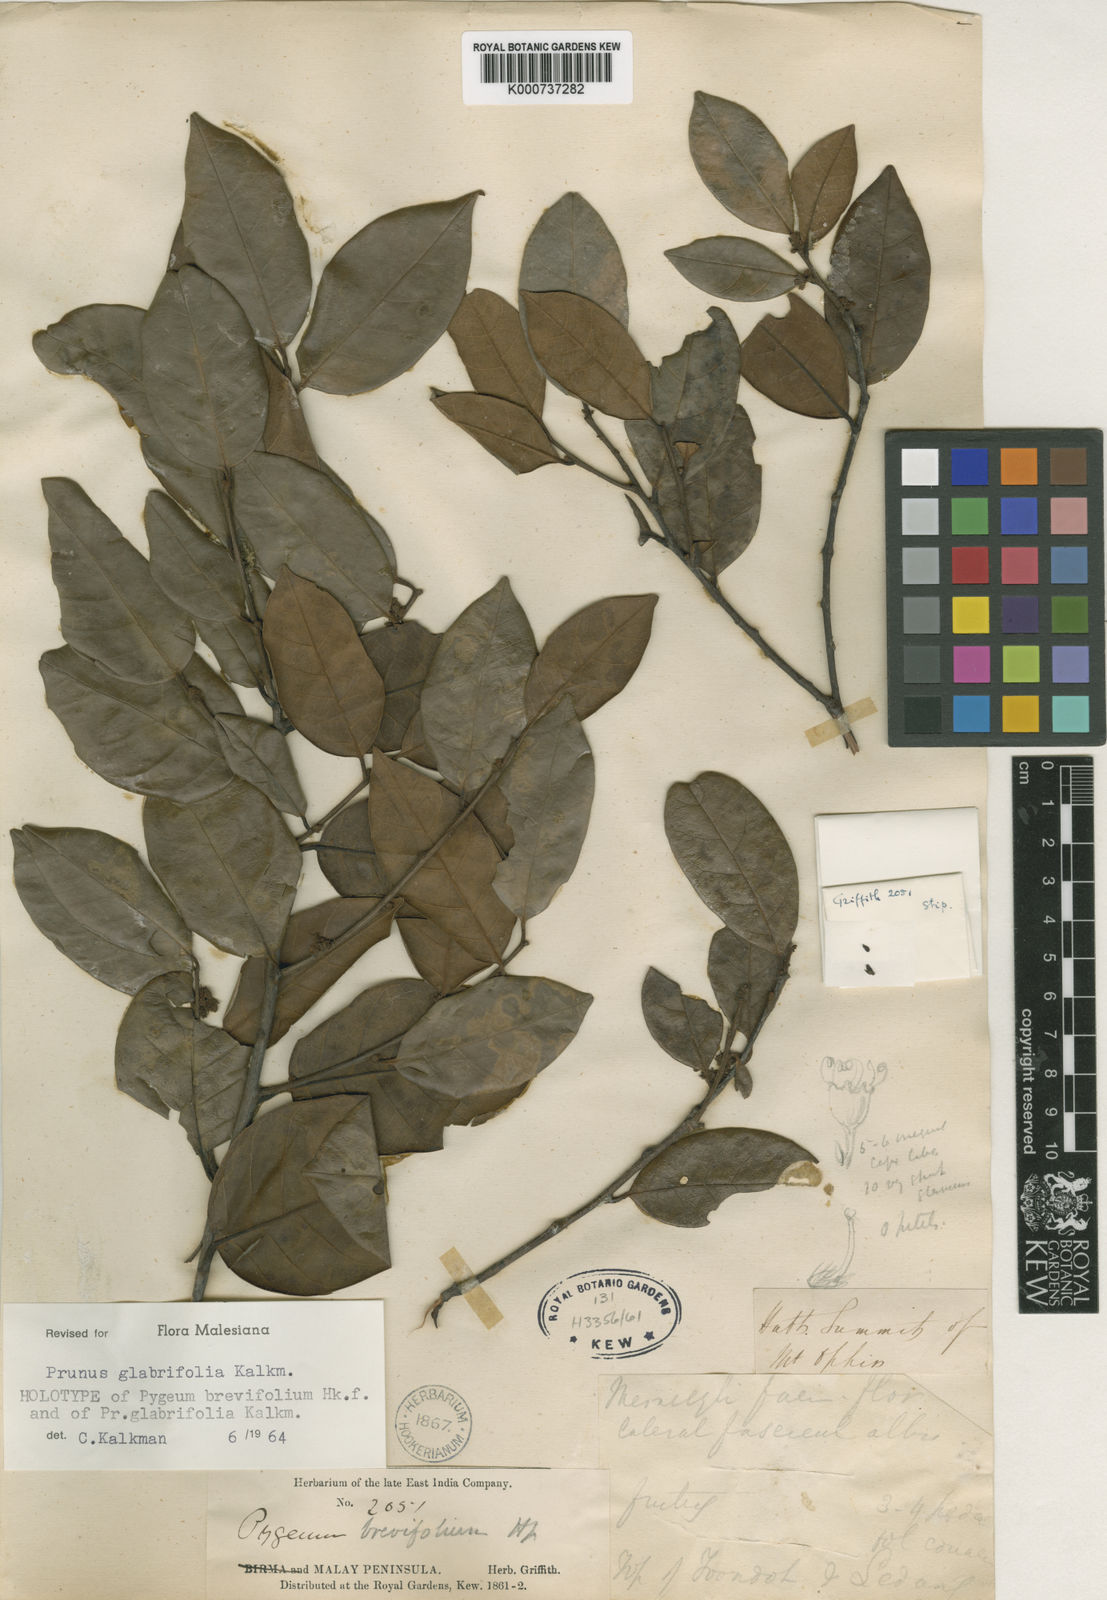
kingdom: Plantae
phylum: Tracheophyta
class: Magnoliopsida
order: Rosales
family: Rosaceae
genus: Prunus
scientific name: Prunus glabrifolia
